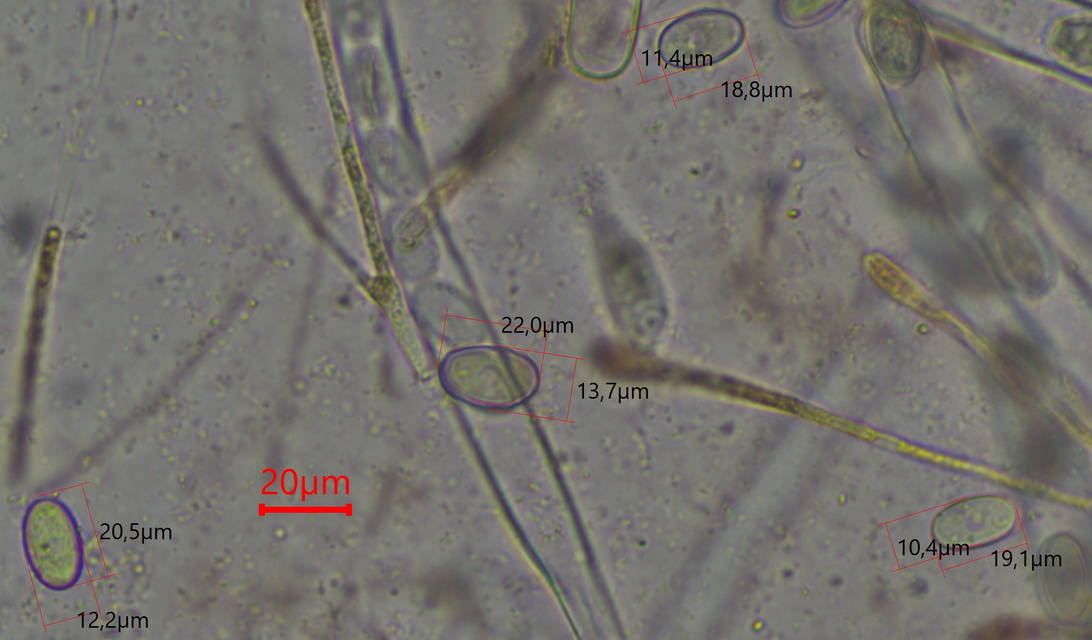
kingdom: Fungi
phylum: Ascomycota
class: Pezizomycetes
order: Pezizales
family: Pyronemataceae
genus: Cheilymenia
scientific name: Cheilymenia granulata
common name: møgbæger
